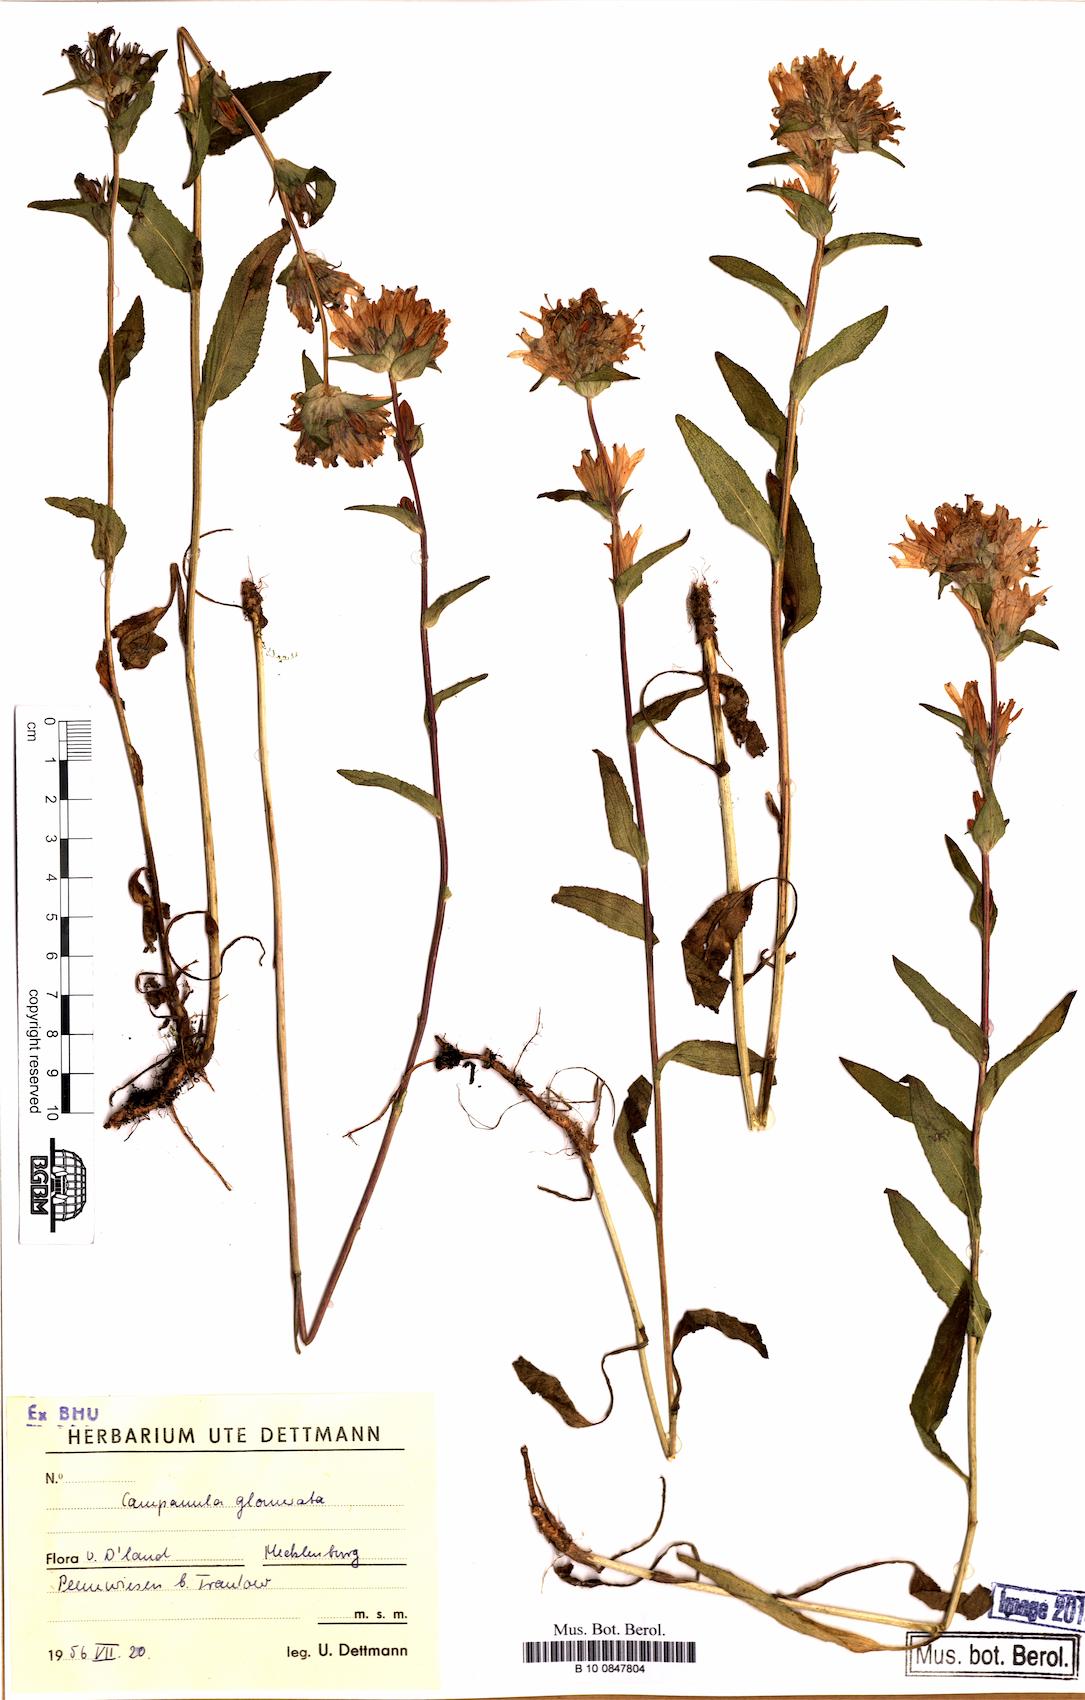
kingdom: Plantae
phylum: Tracheophyta
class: Magnoliopsida
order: Asterales
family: Campanulaceae
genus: Campanula
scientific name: Campanula glomerata
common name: Clustered bellflower
